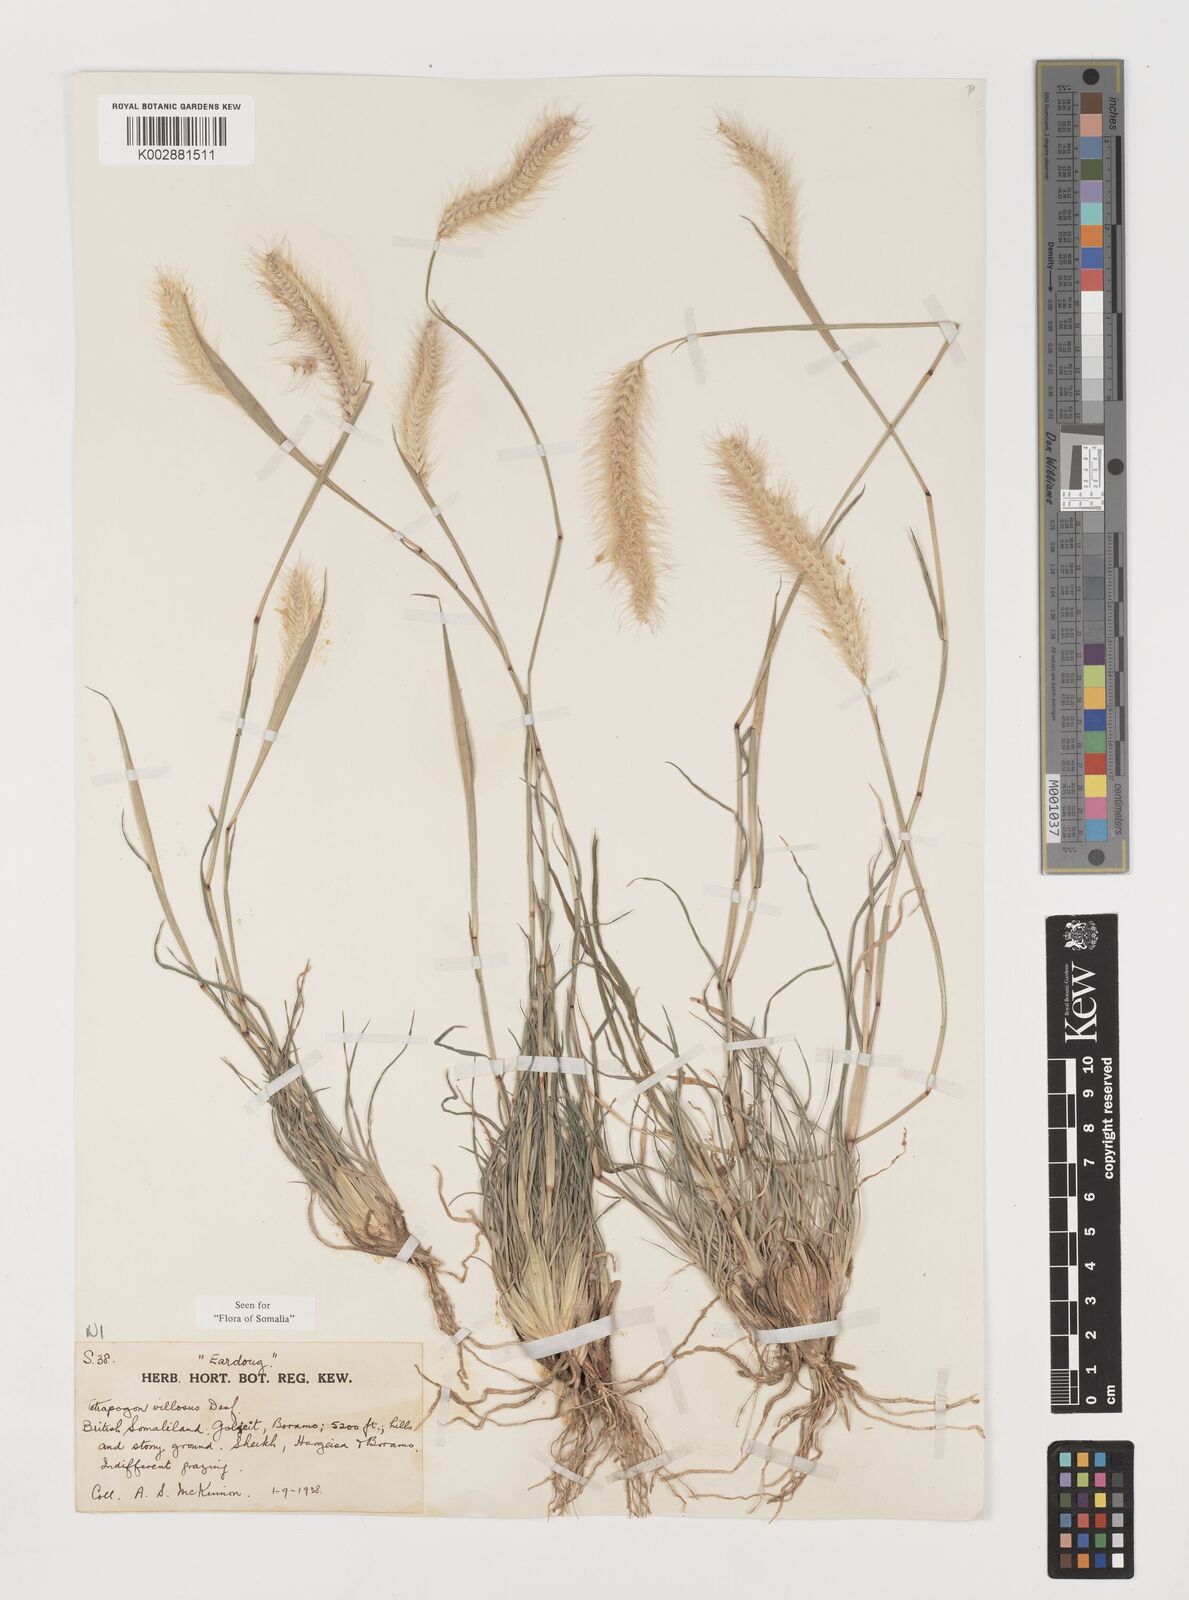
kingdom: Plantae
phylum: Tracheophyta
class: Liliopsida
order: Poales
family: Poaceae
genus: Tetrapogon
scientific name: Tetrapogon villosus
